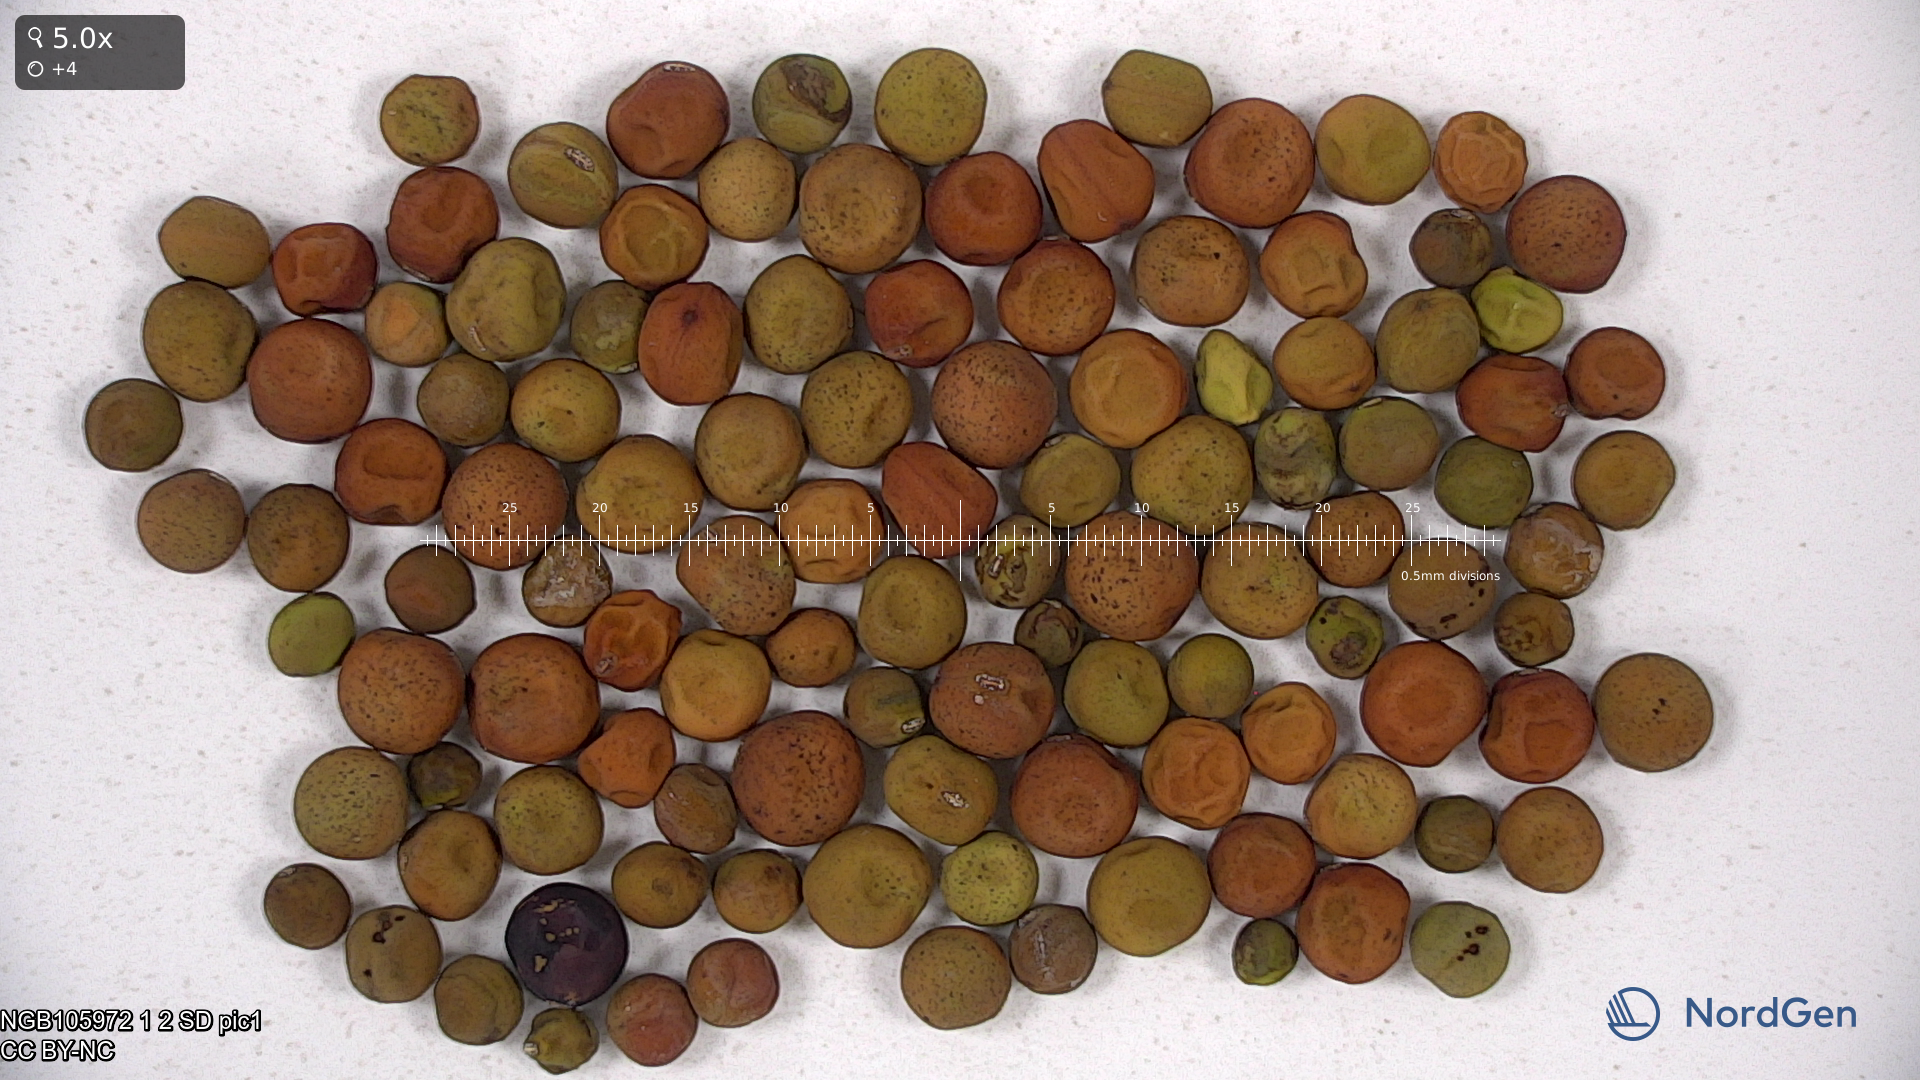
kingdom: Plantae
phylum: Tracheophyta
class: Magnoliopsida
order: Fabales
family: Fabaceae
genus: Lathyrus
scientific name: Lathyrus oleraceus
